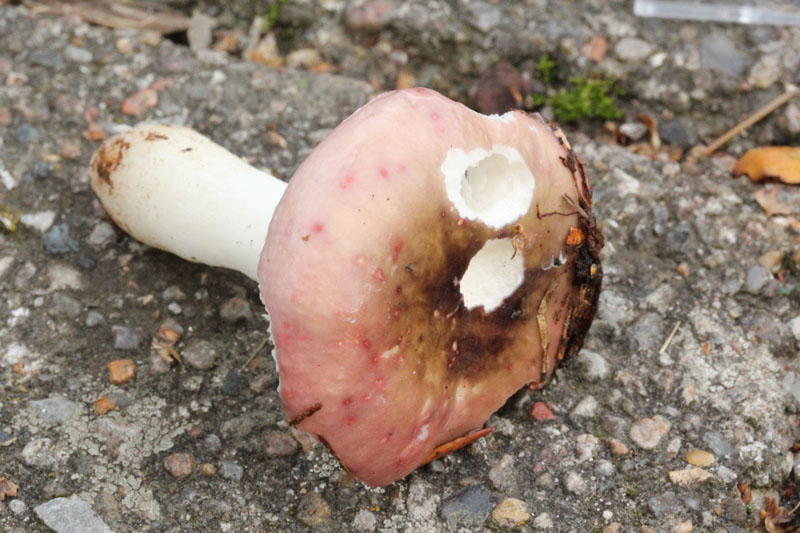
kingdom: Fungi
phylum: Basidiomycota
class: Agaricomycetes
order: Russulales
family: Russulaceae
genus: Russula
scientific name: Russula fragilis
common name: Fragile brittlegill
